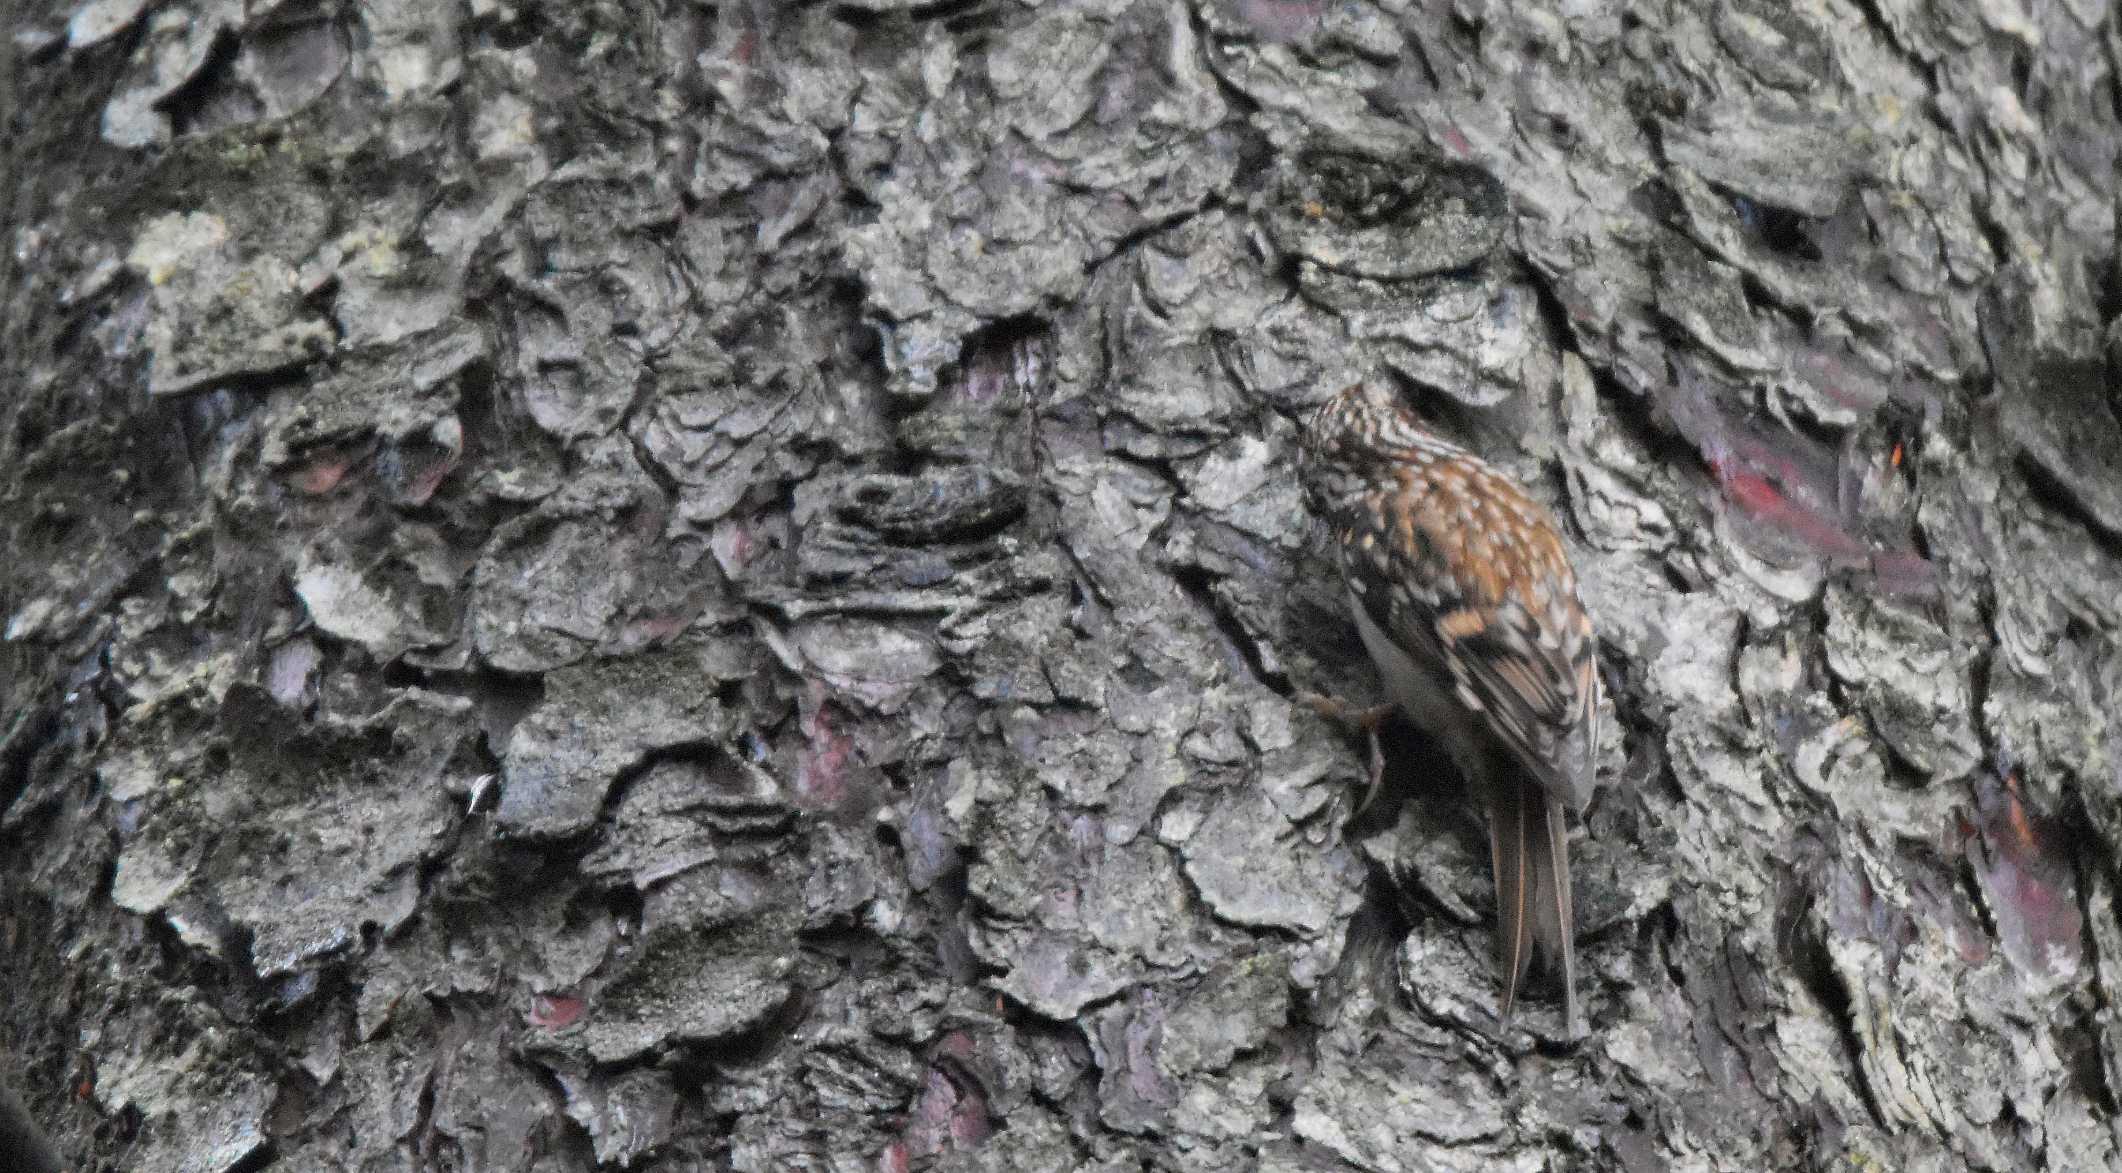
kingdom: Animalia
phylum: Chordata
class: Aves
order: Passeriformes
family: Certhiidae
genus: Certhia
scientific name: Certhia familiaris
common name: Træløber
